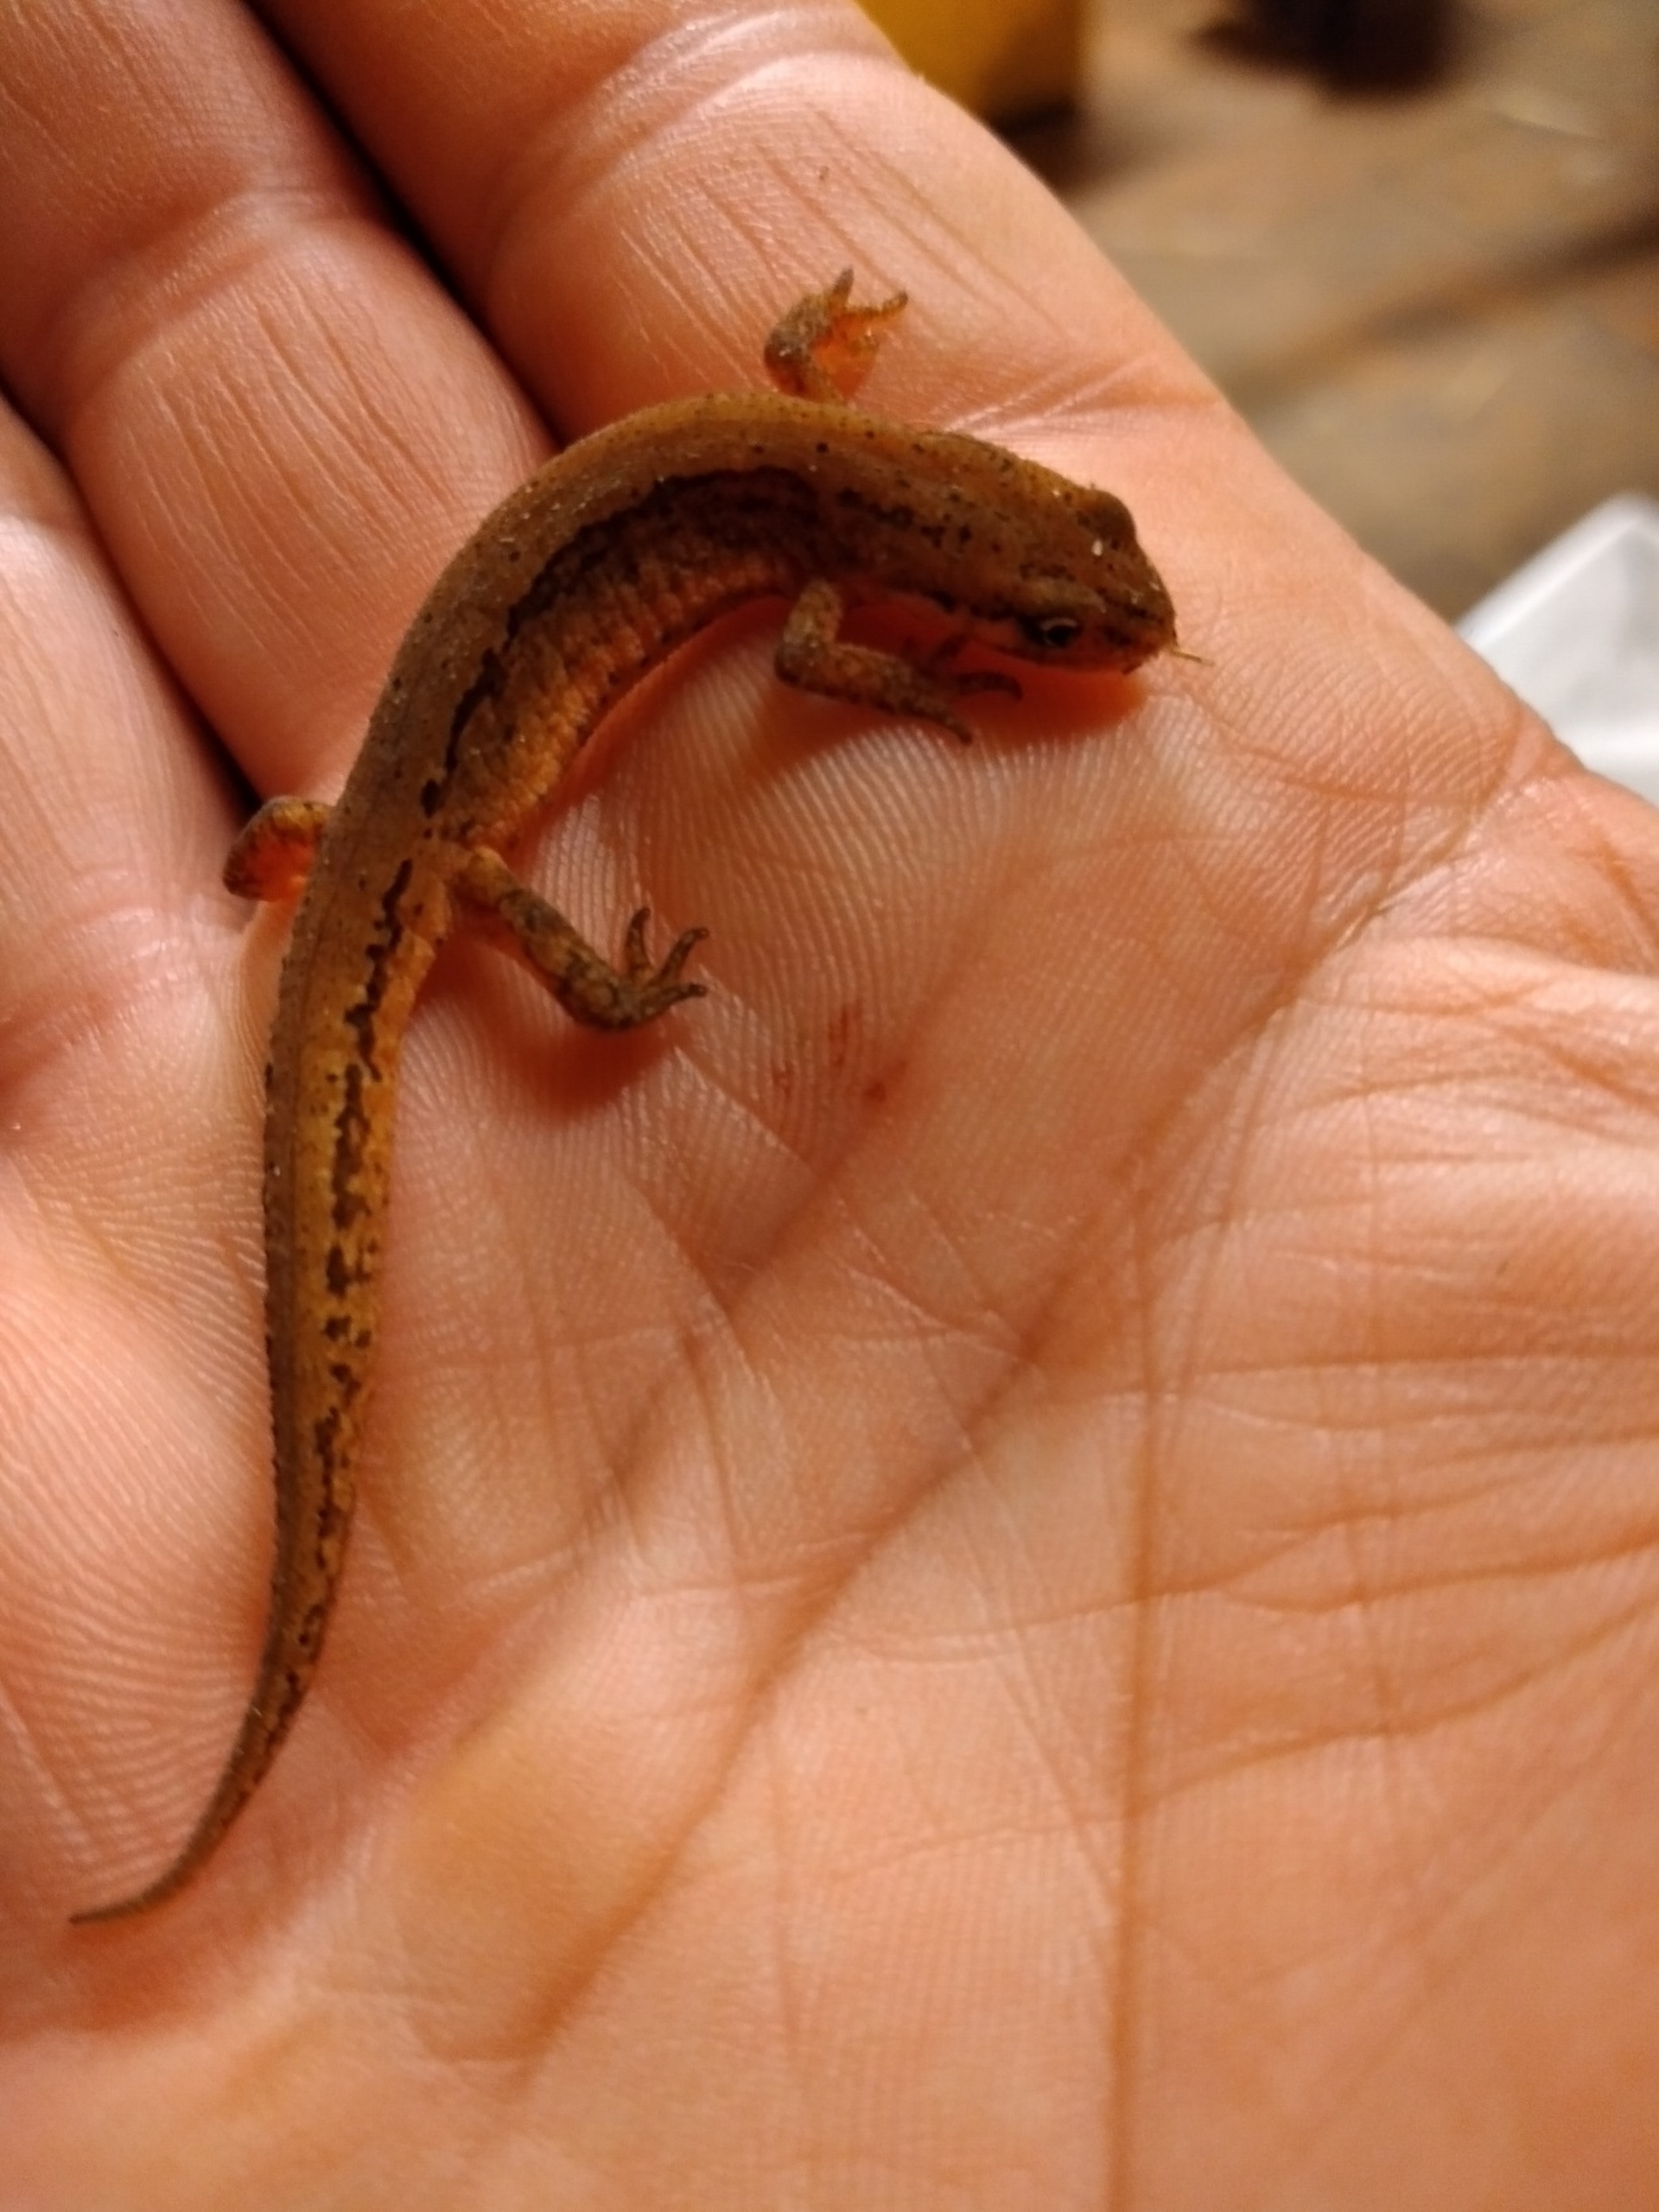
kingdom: Animalia
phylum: Chordata
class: Amphibia
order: Caudata
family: Salamandridae
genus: Lissotriton
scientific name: Lissotriton vulgaris
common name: Lille vandsalamander
